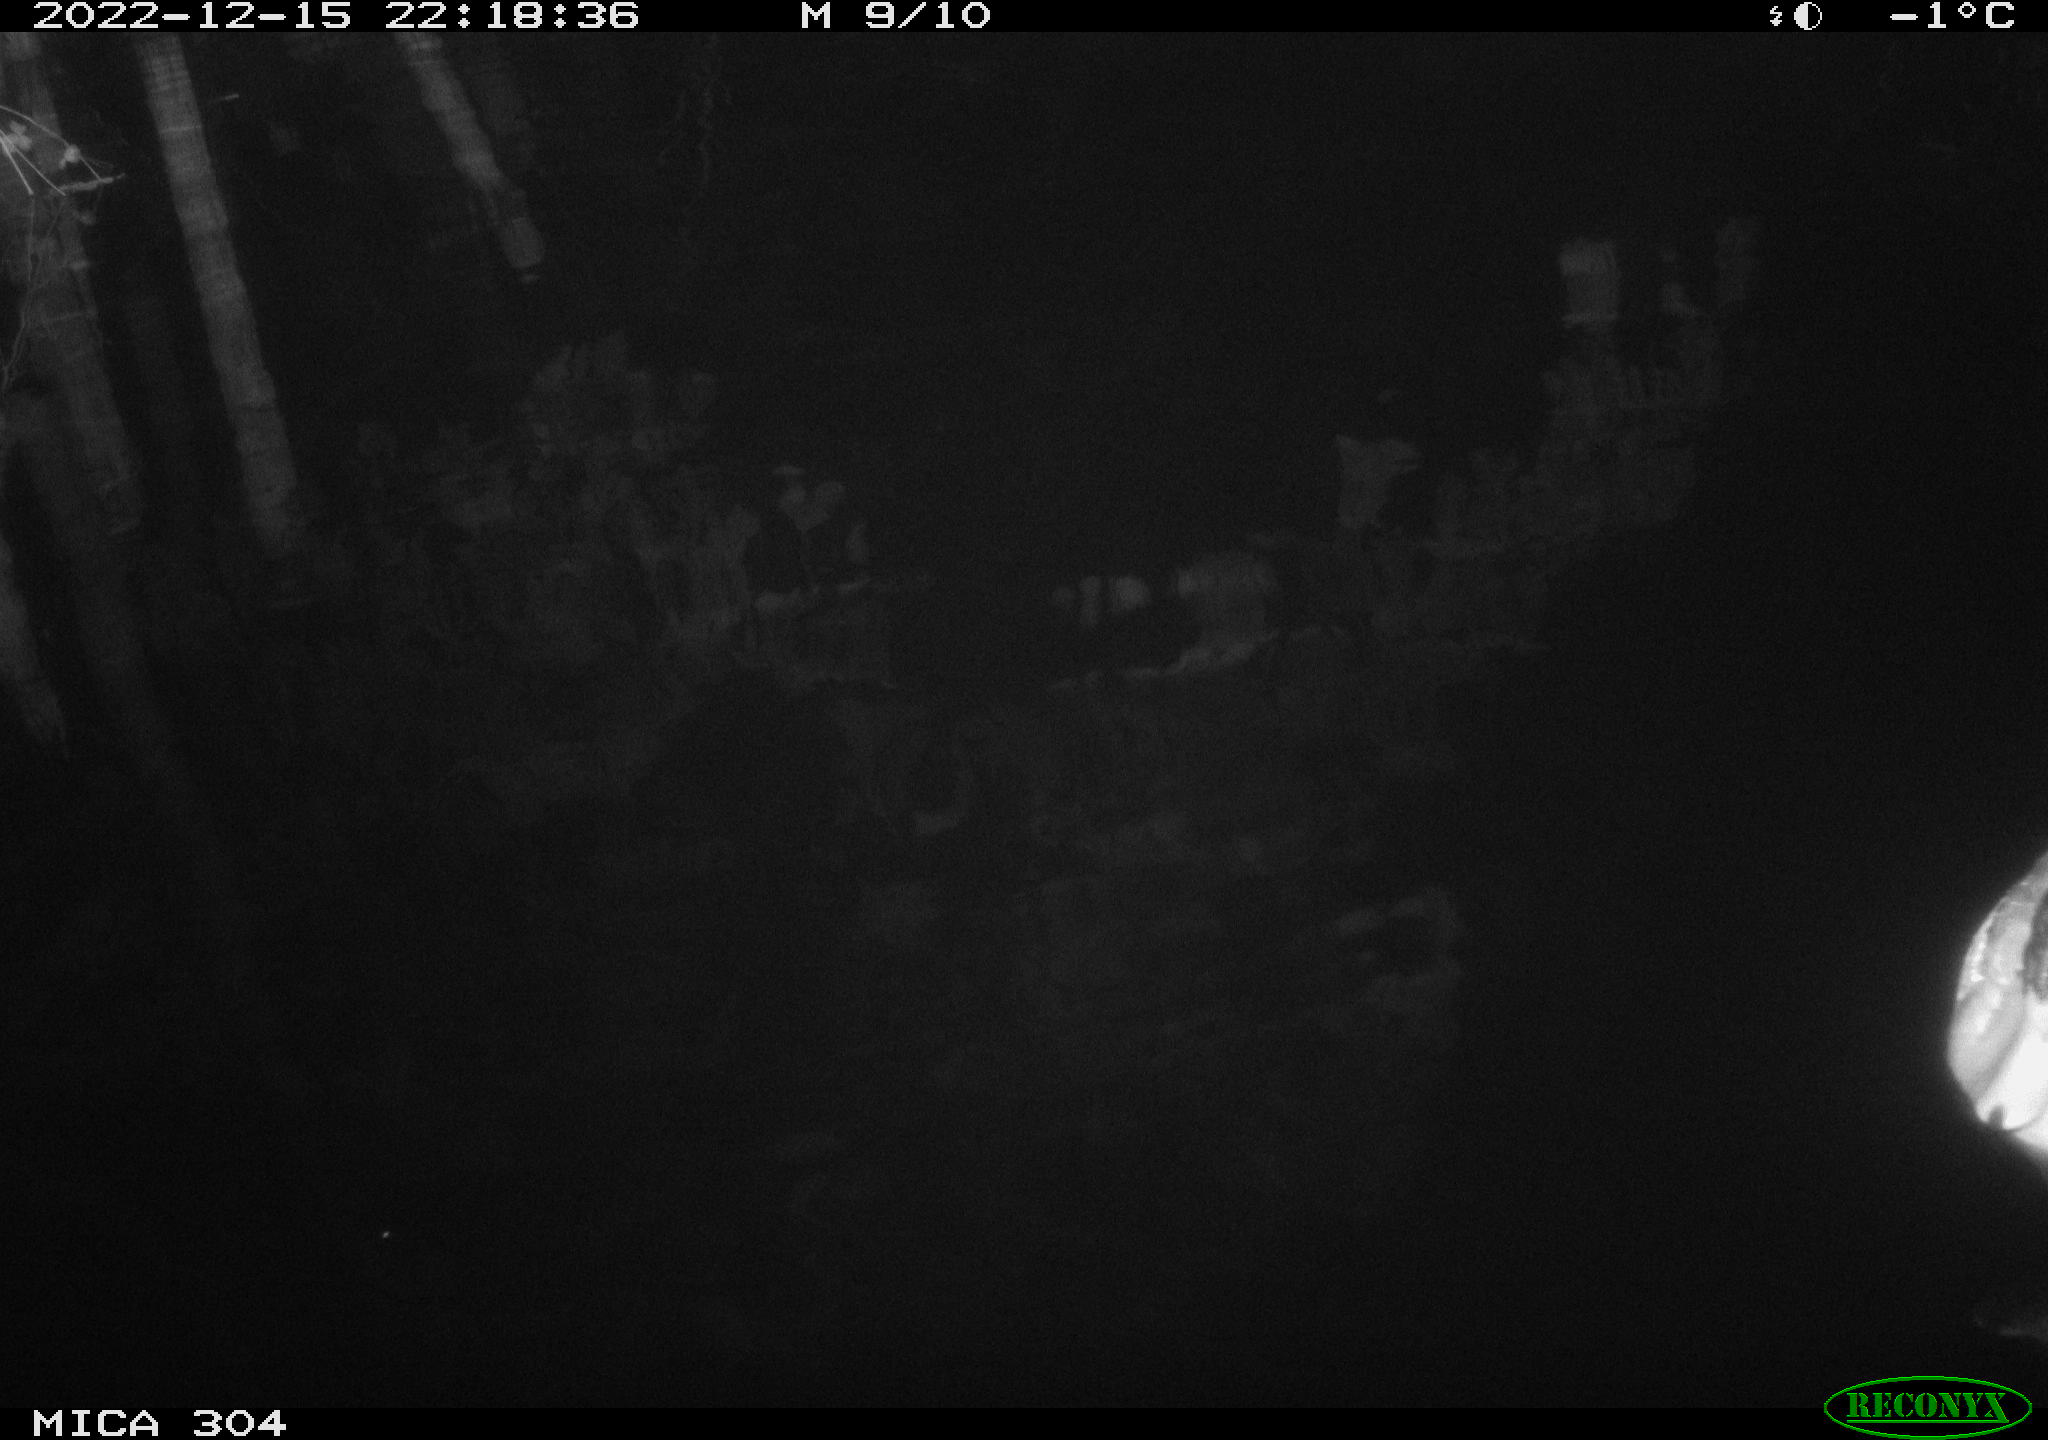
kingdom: Animalia
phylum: Chordata
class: Aves
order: Anseriformes
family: Anatidae
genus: Anas
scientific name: Anas
